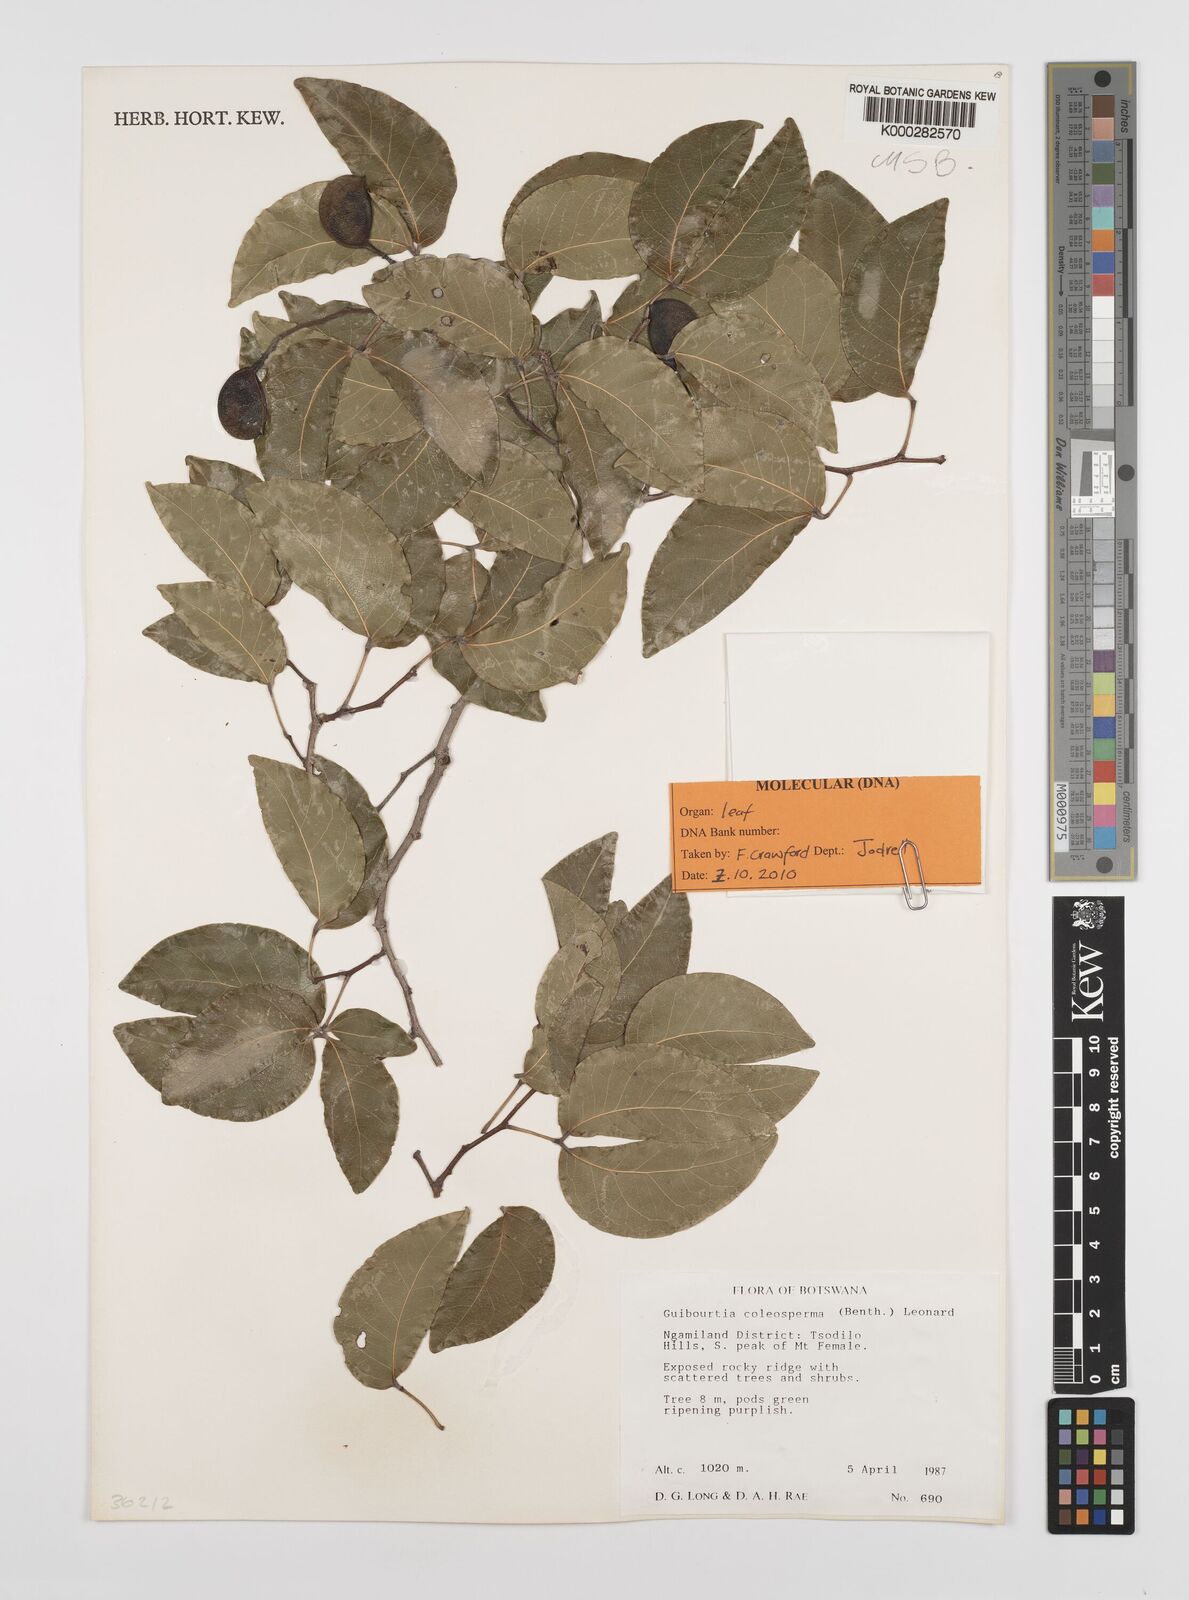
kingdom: Plantae
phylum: Tracheophyta
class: Magnoliopsida
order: Fabales
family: Fabaceae
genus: Guibourtia
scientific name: Guibourtia coleosperma
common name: African rosewoood
